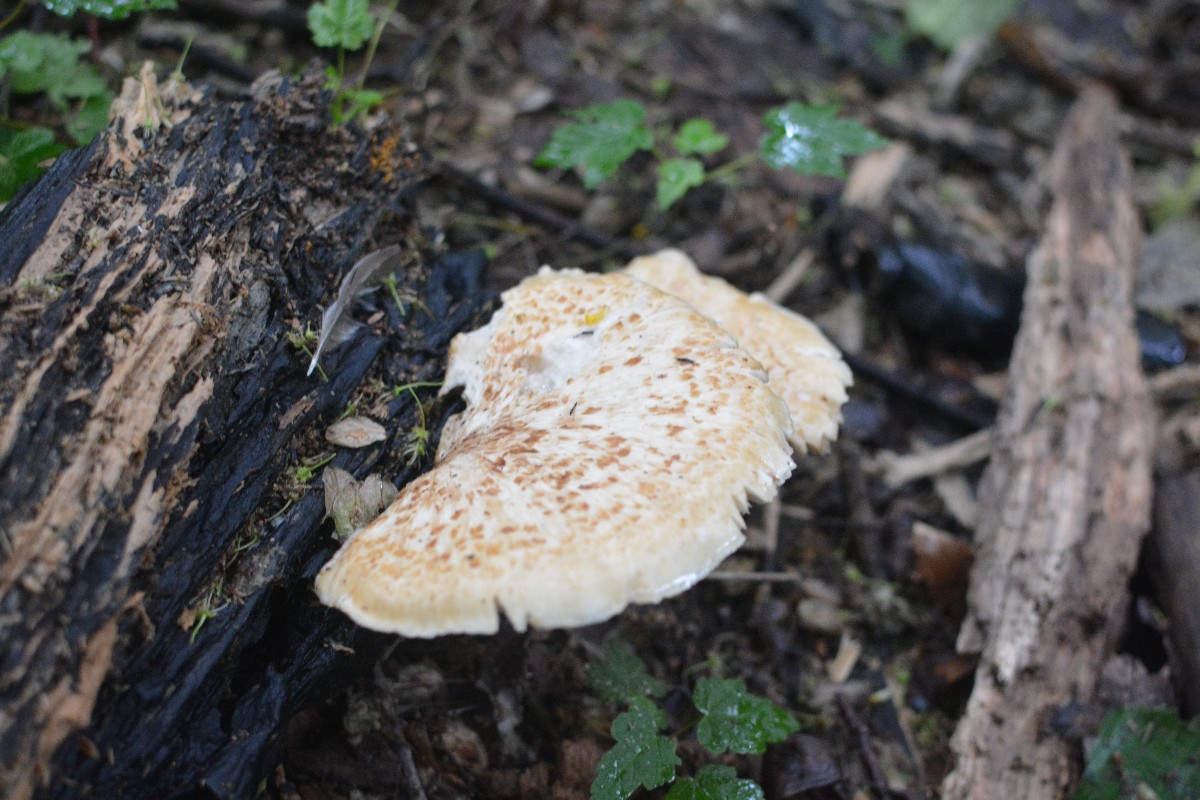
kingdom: Fungi
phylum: Basidiomycota
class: Agaricomycetes
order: Polyporales
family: Polyporaceae
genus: Cerioporus
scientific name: Cerioporus squamosus
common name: skællet stilkporesvamp
